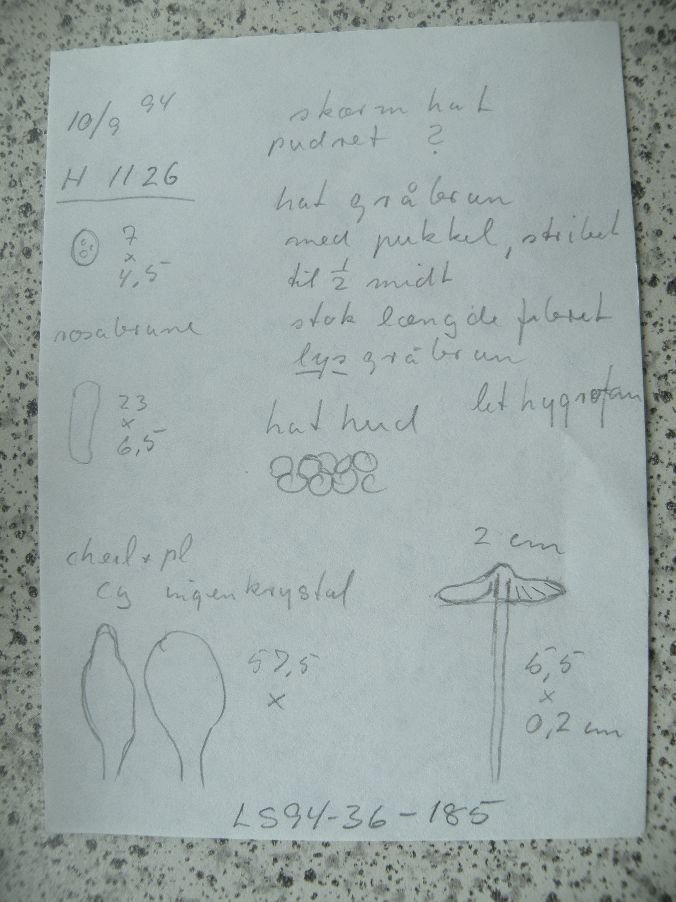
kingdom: Fungi
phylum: Basidiomycota
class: Agaricomycetes
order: Agaricales
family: Pluteaceae
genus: Pluteus
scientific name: Pluteus
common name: pudret skærmhat
